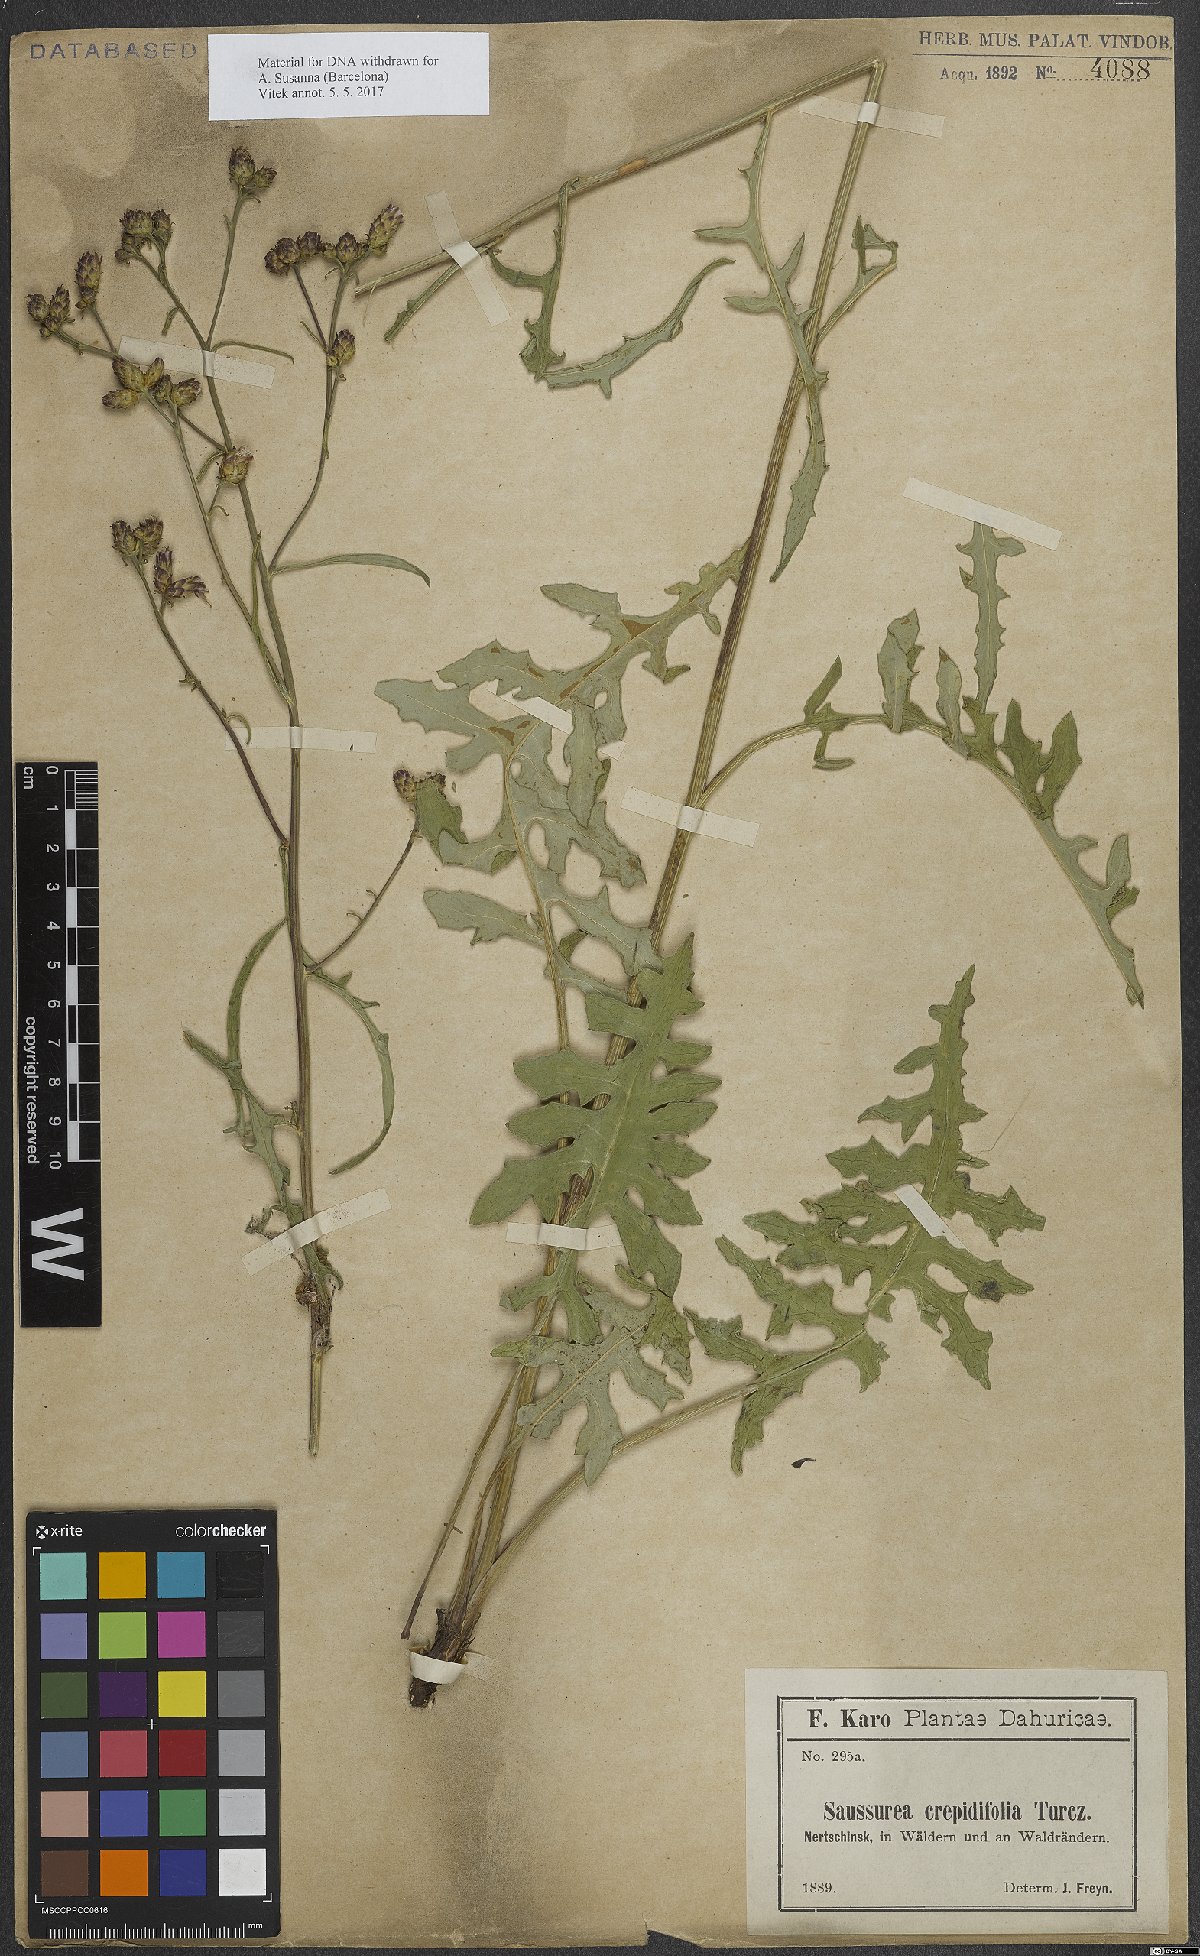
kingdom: Plantae
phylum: Tracheophyta
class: Magnoliopsida
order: Asterales
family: Asteraceae
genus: Saussurea
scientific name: Saussurea runcinata
